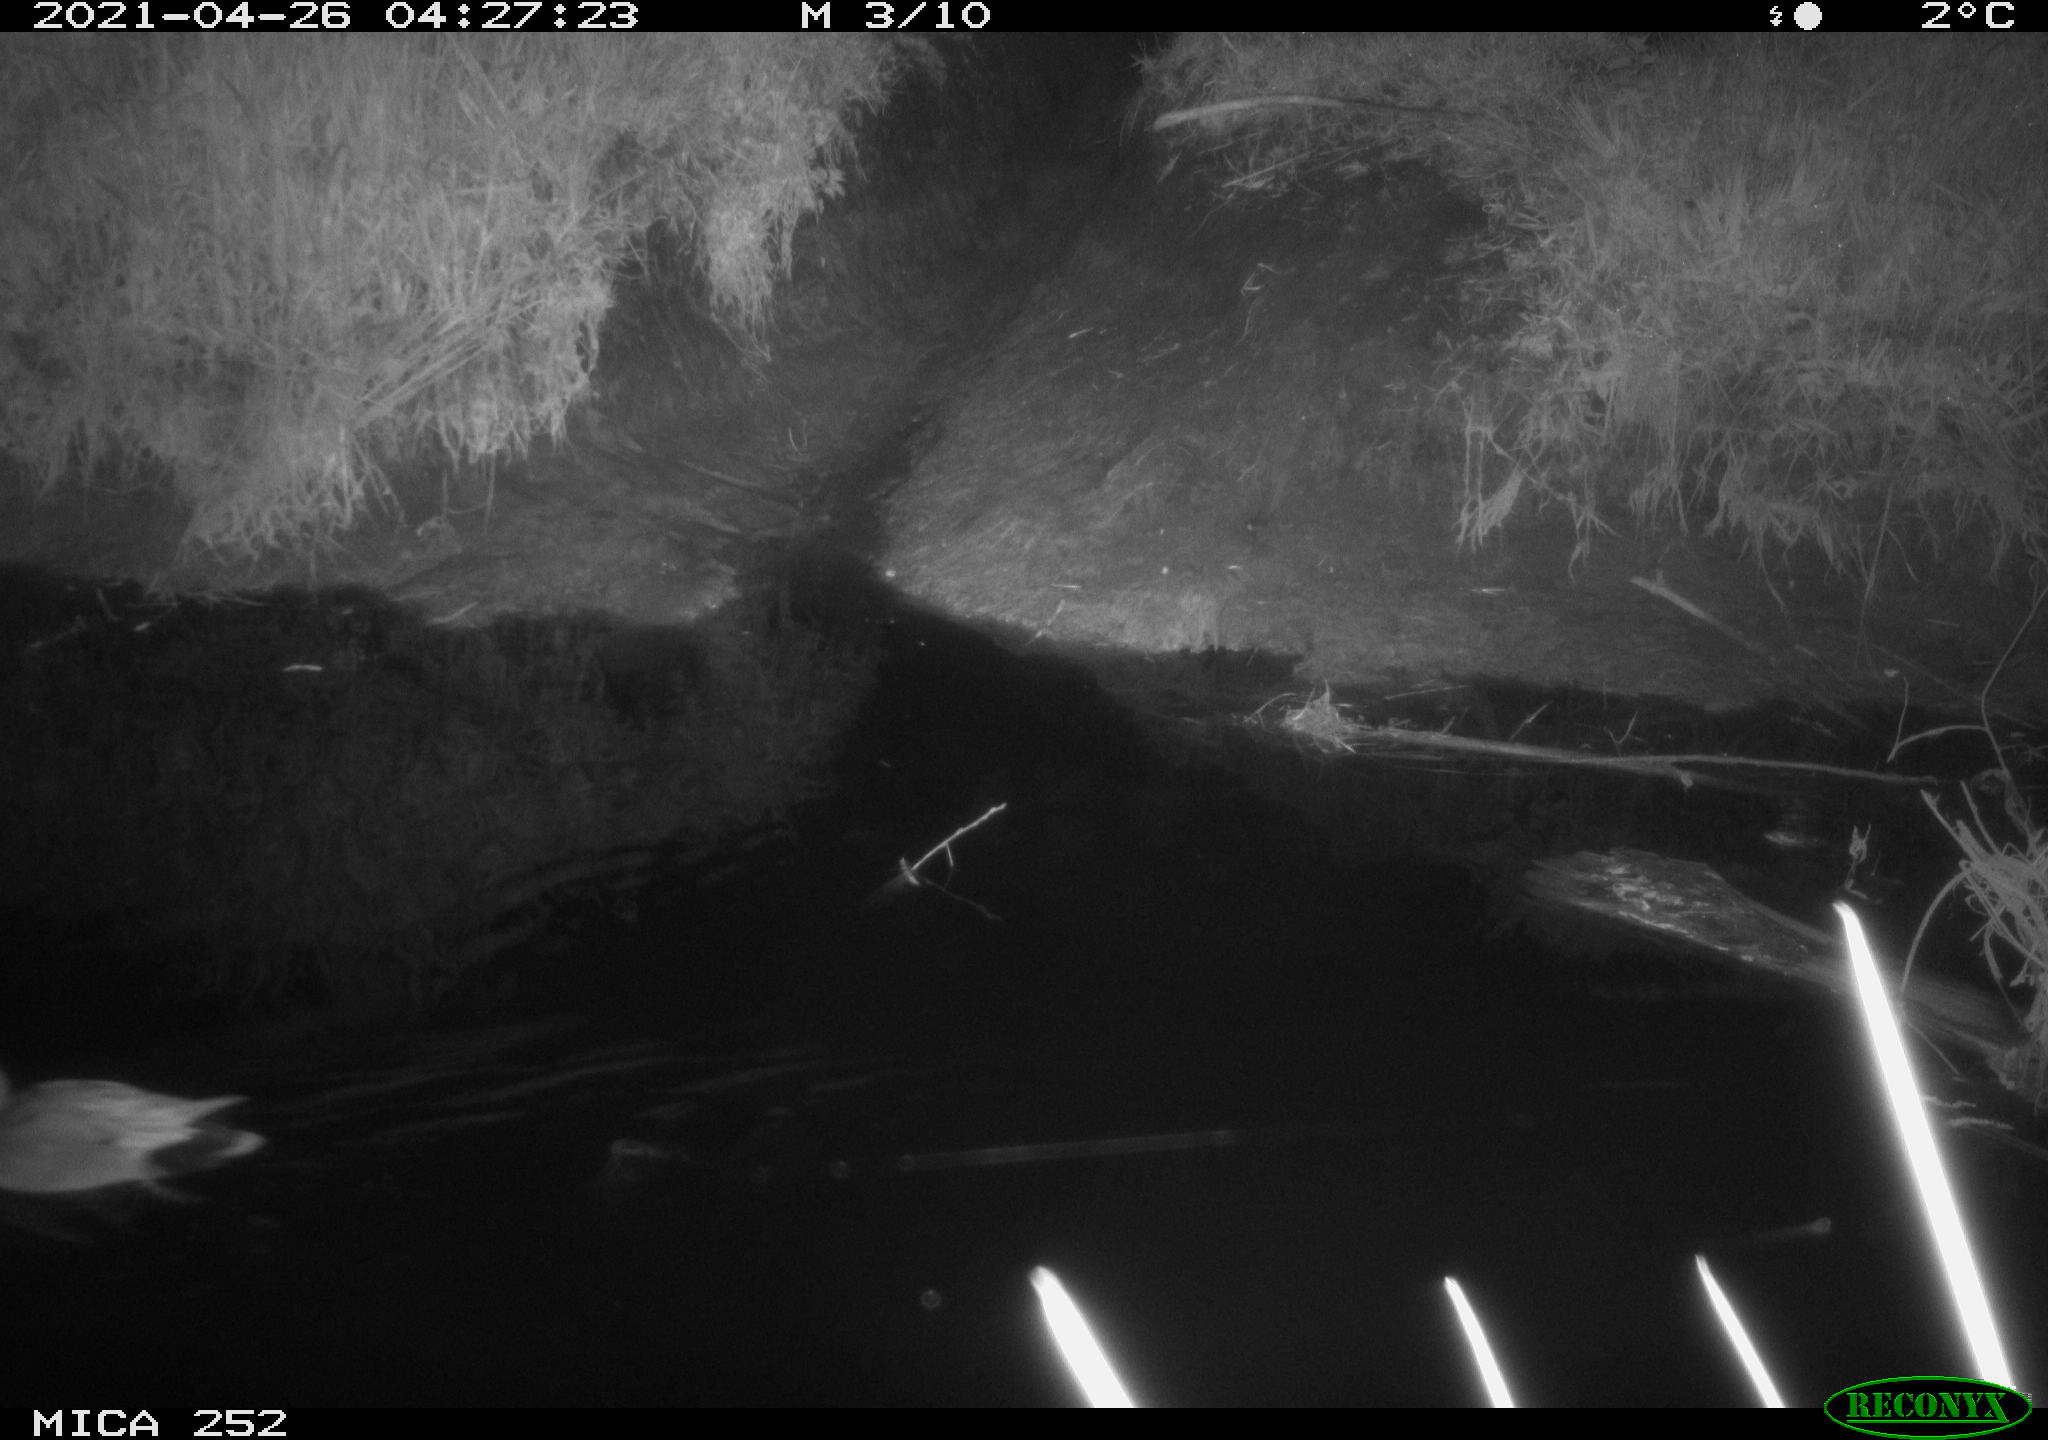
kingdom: Animalia
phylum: Chordata
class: Aves
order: Anseriformes
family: Anatidae
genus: Anas
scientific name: Anas platyrhynchos
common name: Mallard
